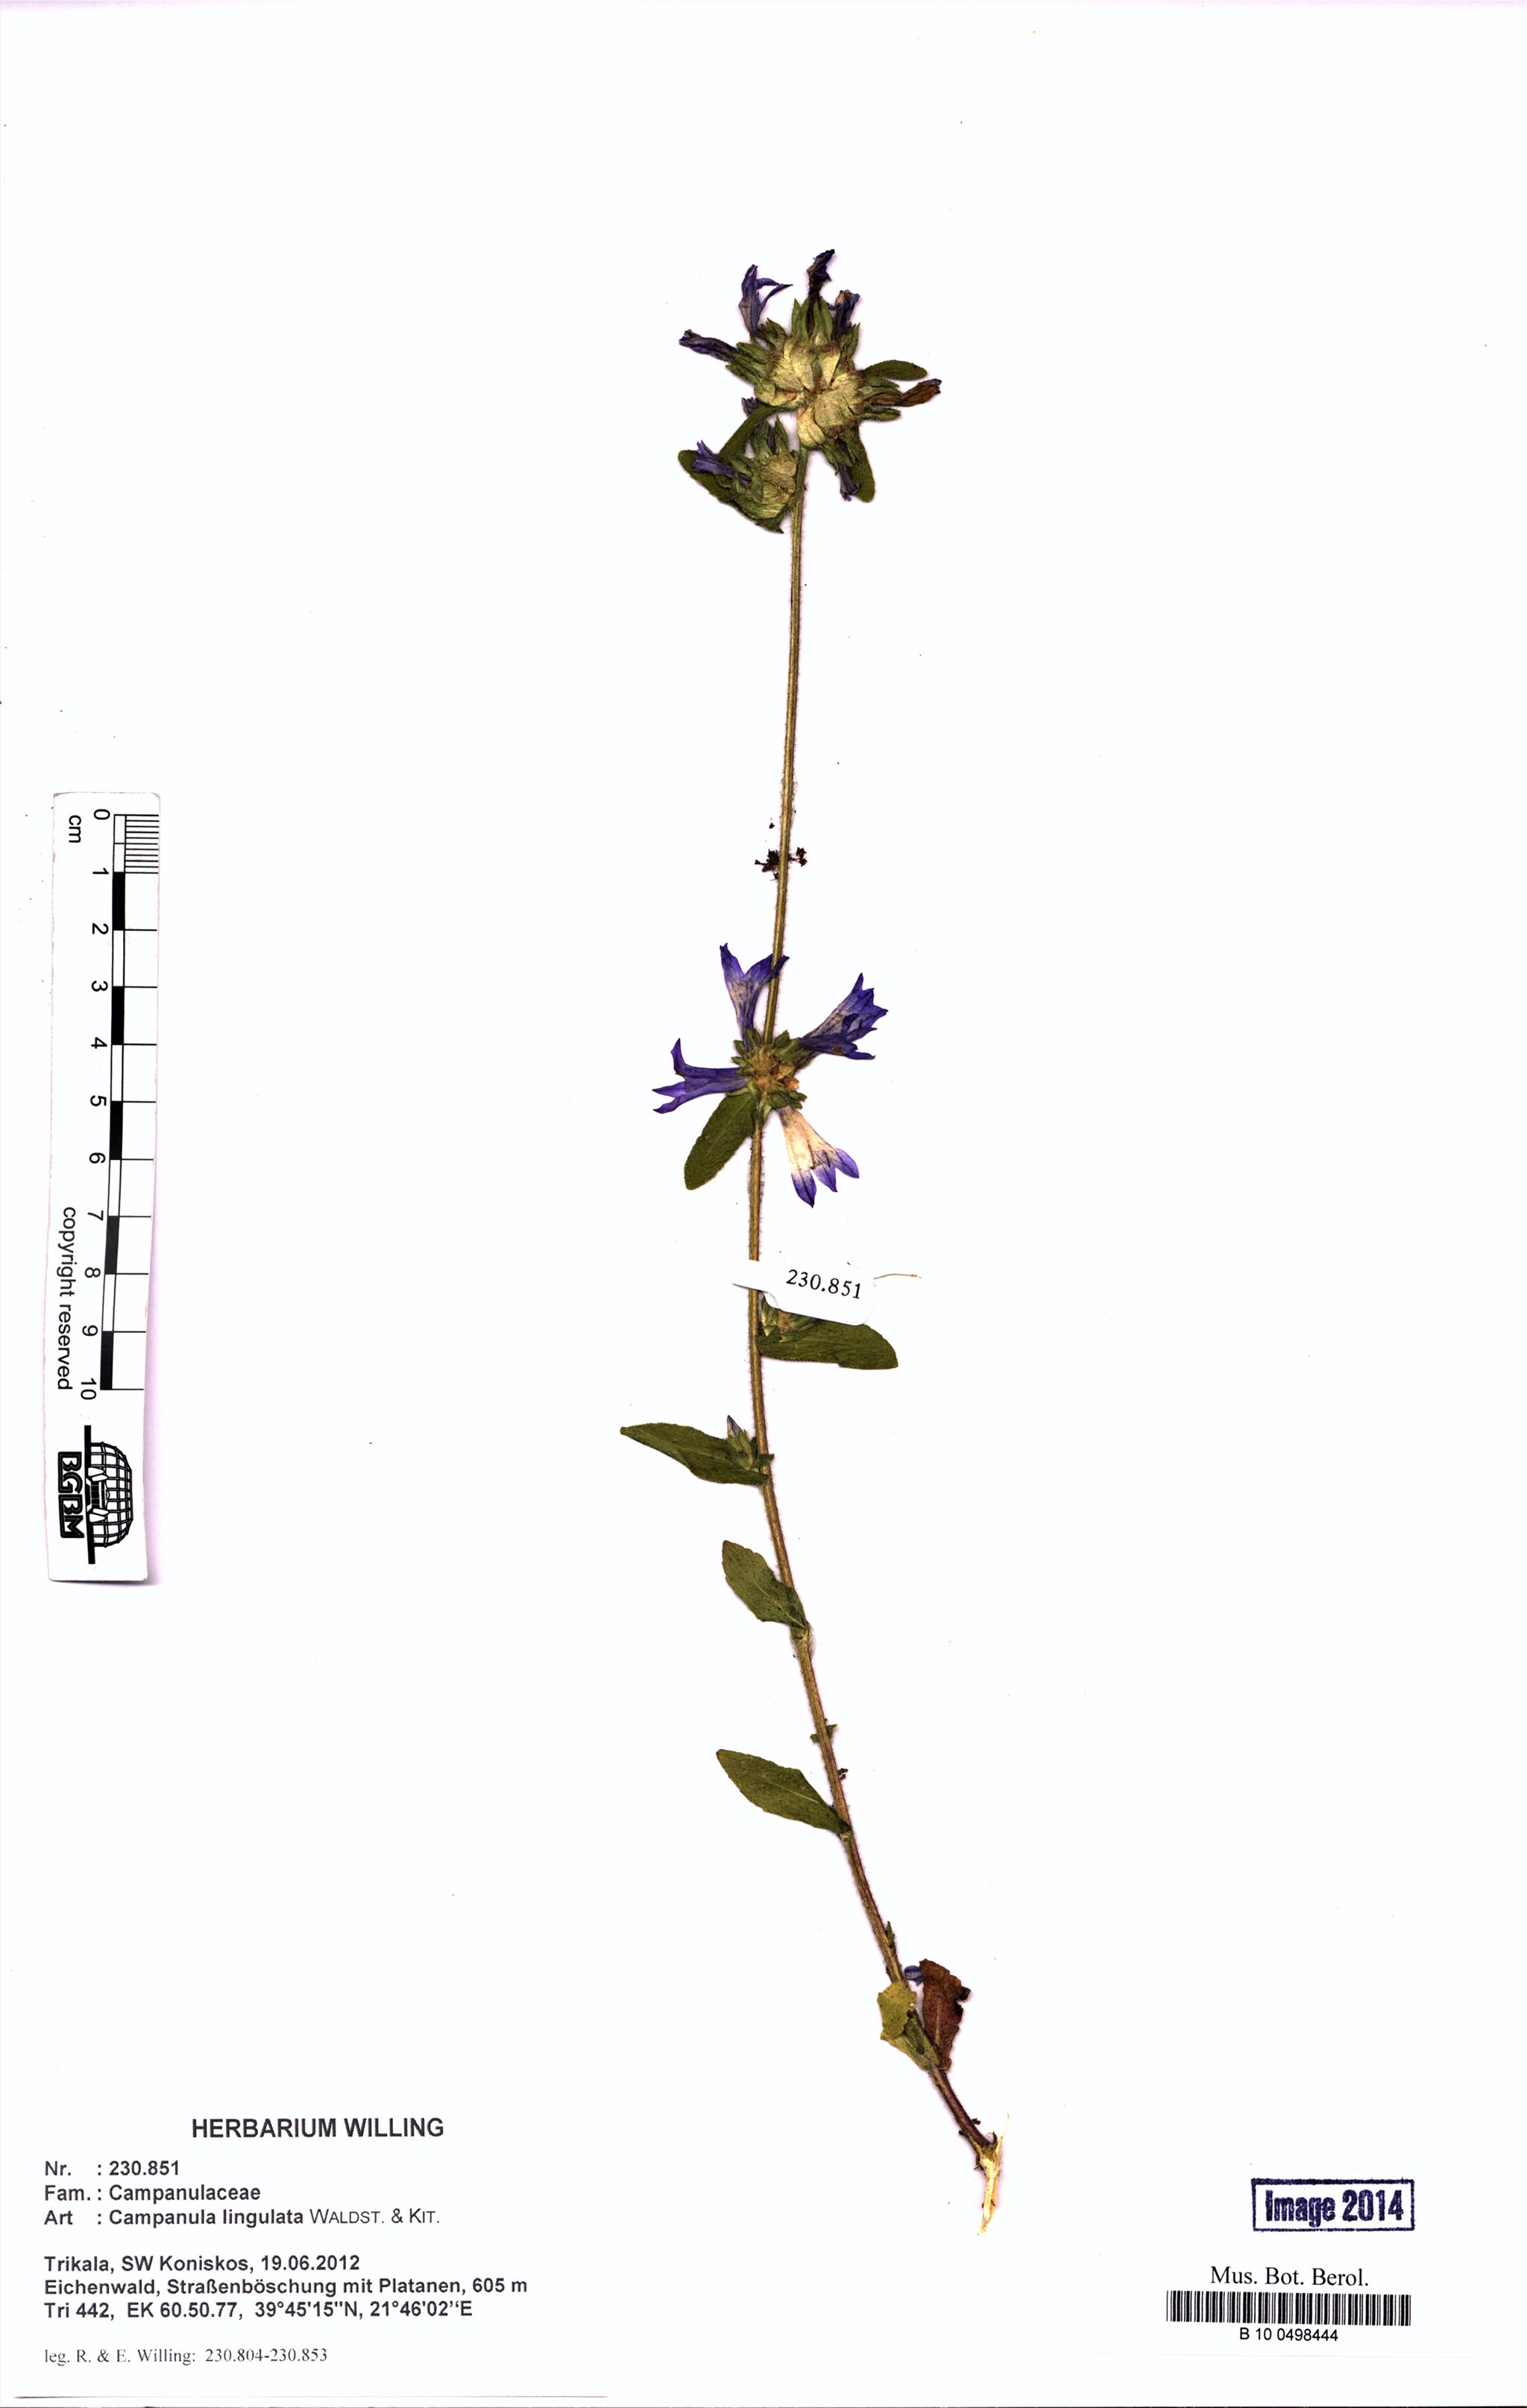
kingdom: Plantae
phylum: Tracheophyta
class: Magnoliopsida
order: Asterales
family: Campanulaceae
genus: Campanula
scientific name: Campanula lingulata
